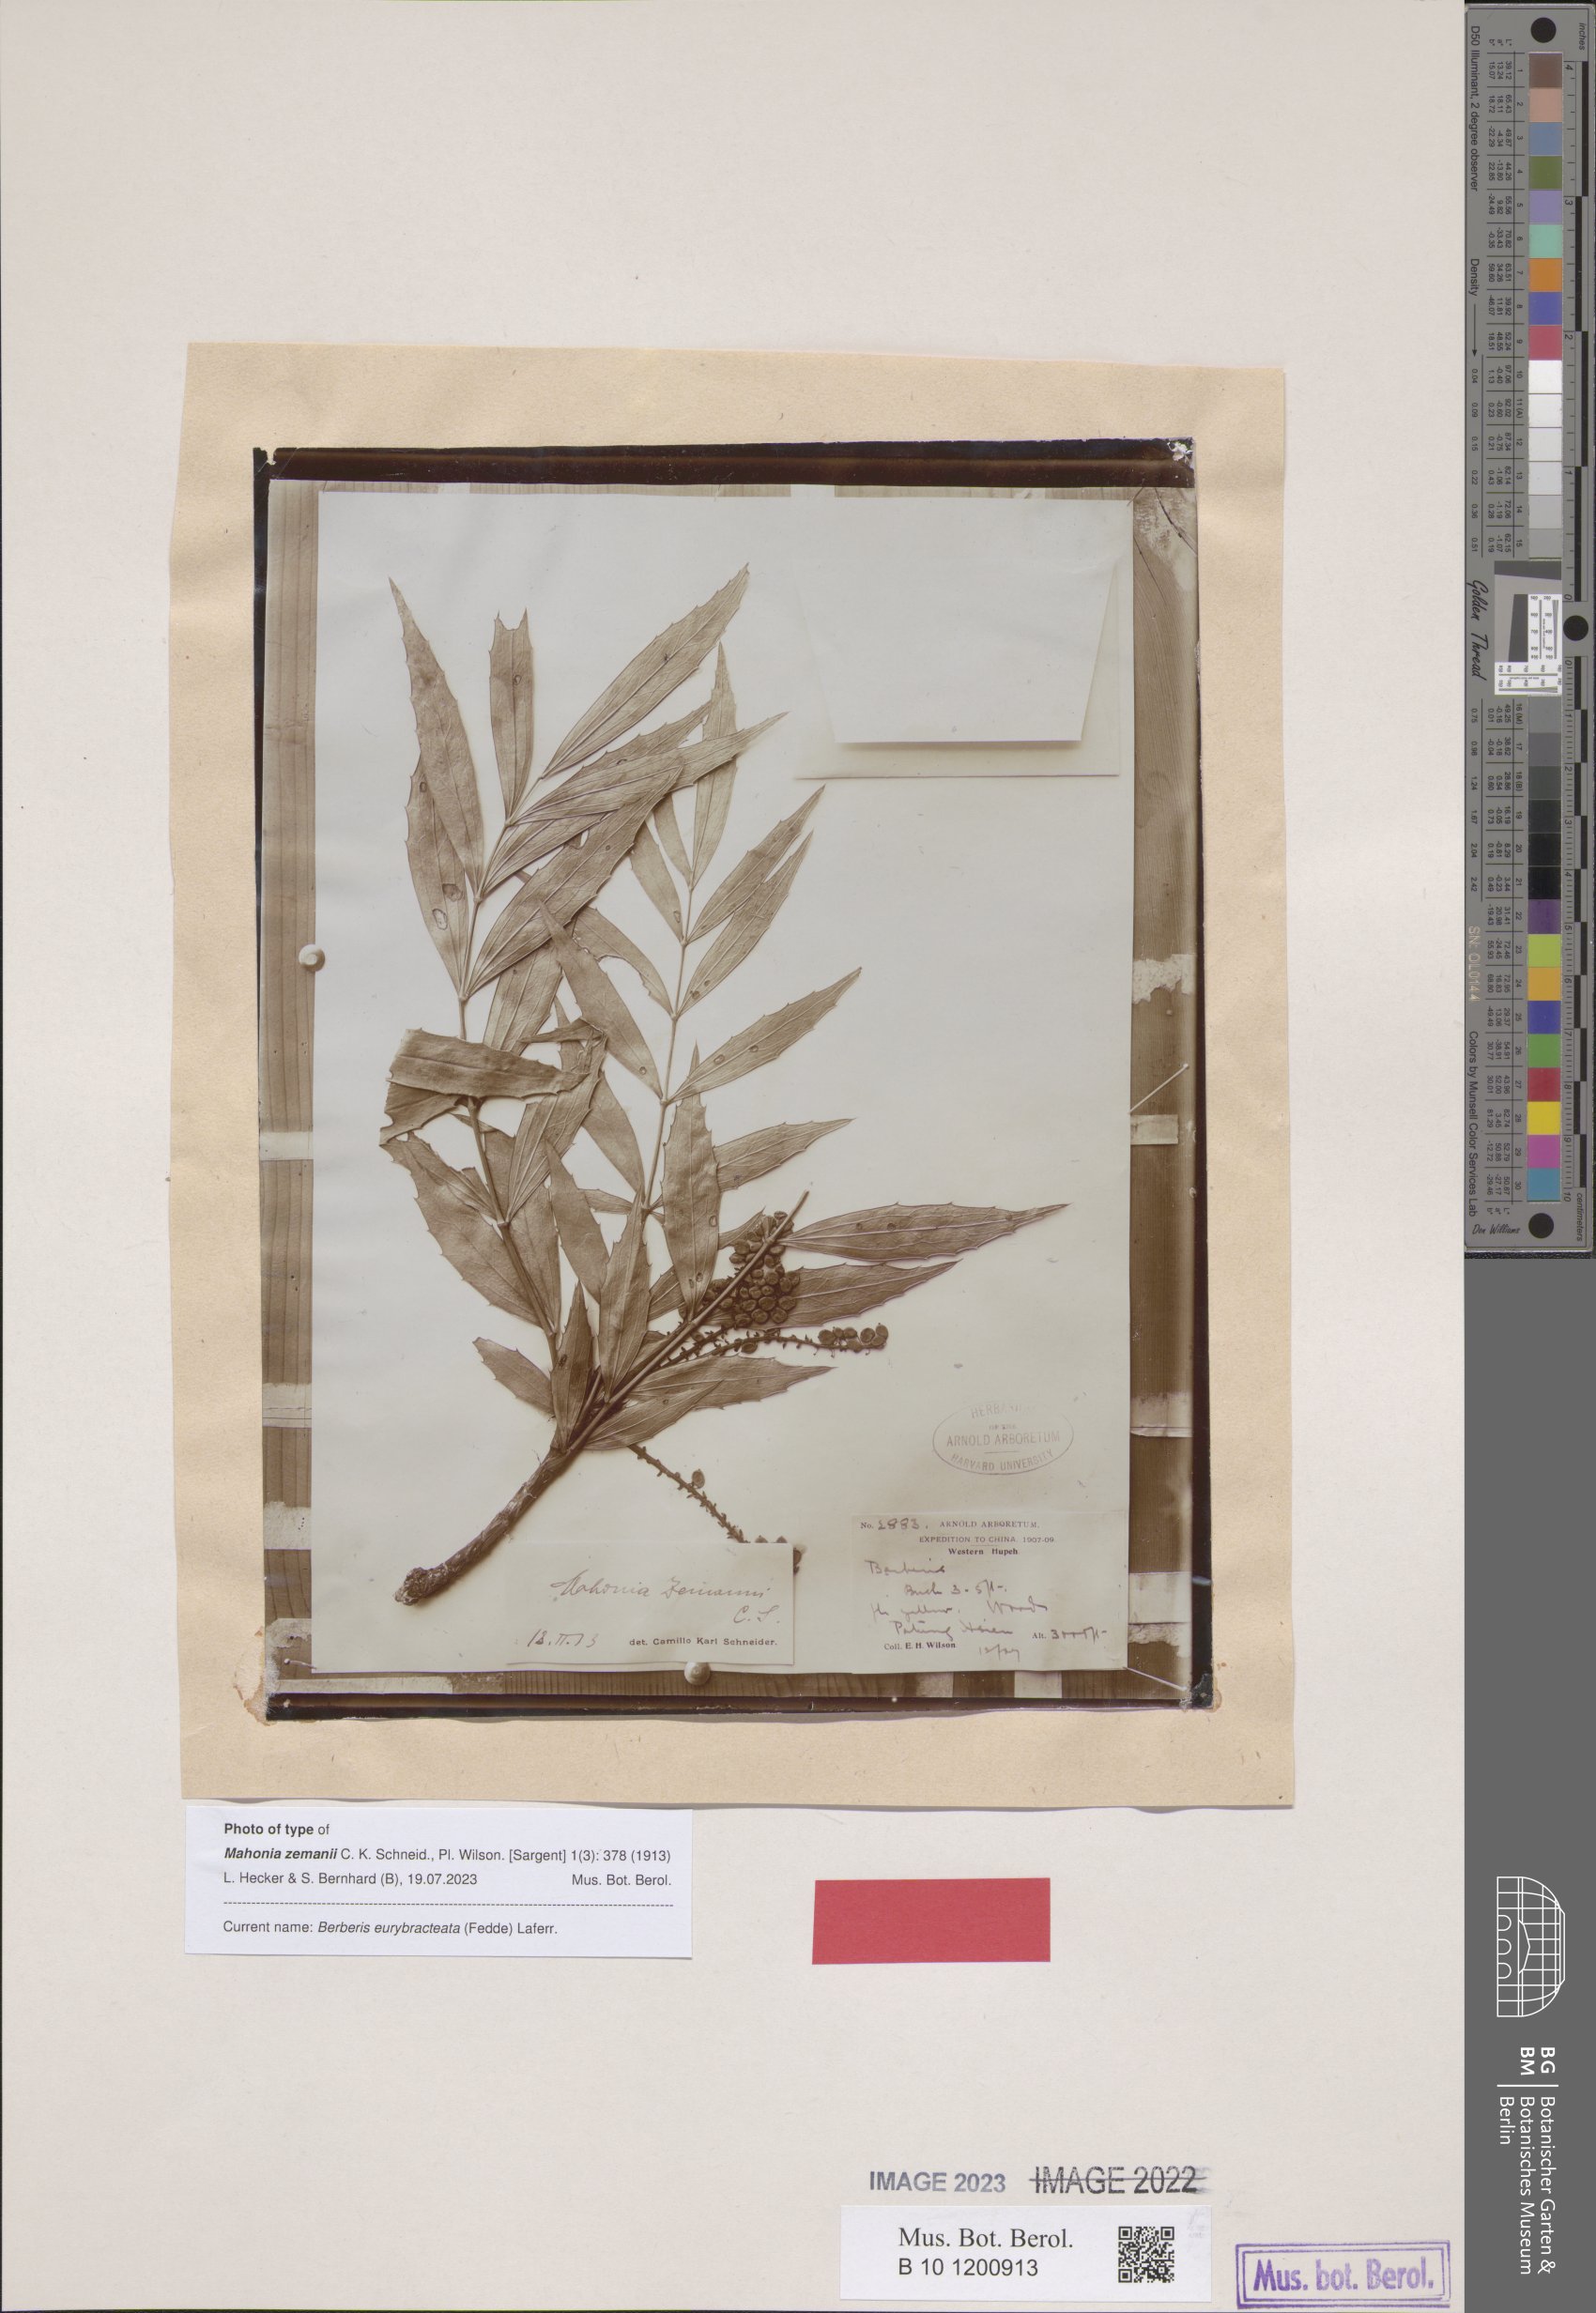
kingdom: Plantae
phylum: Tracheophyta
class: Magnoliopsida
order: Ranunculales
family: Berberidaceae
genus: Mahonia
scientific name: Mahonia eurybracteata
